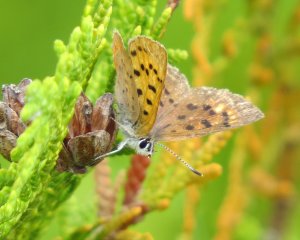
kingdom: Animalia
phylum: Arthropoda
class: Insecta
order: Lepidoptera
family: Lycaenidae
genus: Epidemia
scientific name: Epidemia dorcas
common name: Dorcas Copper
